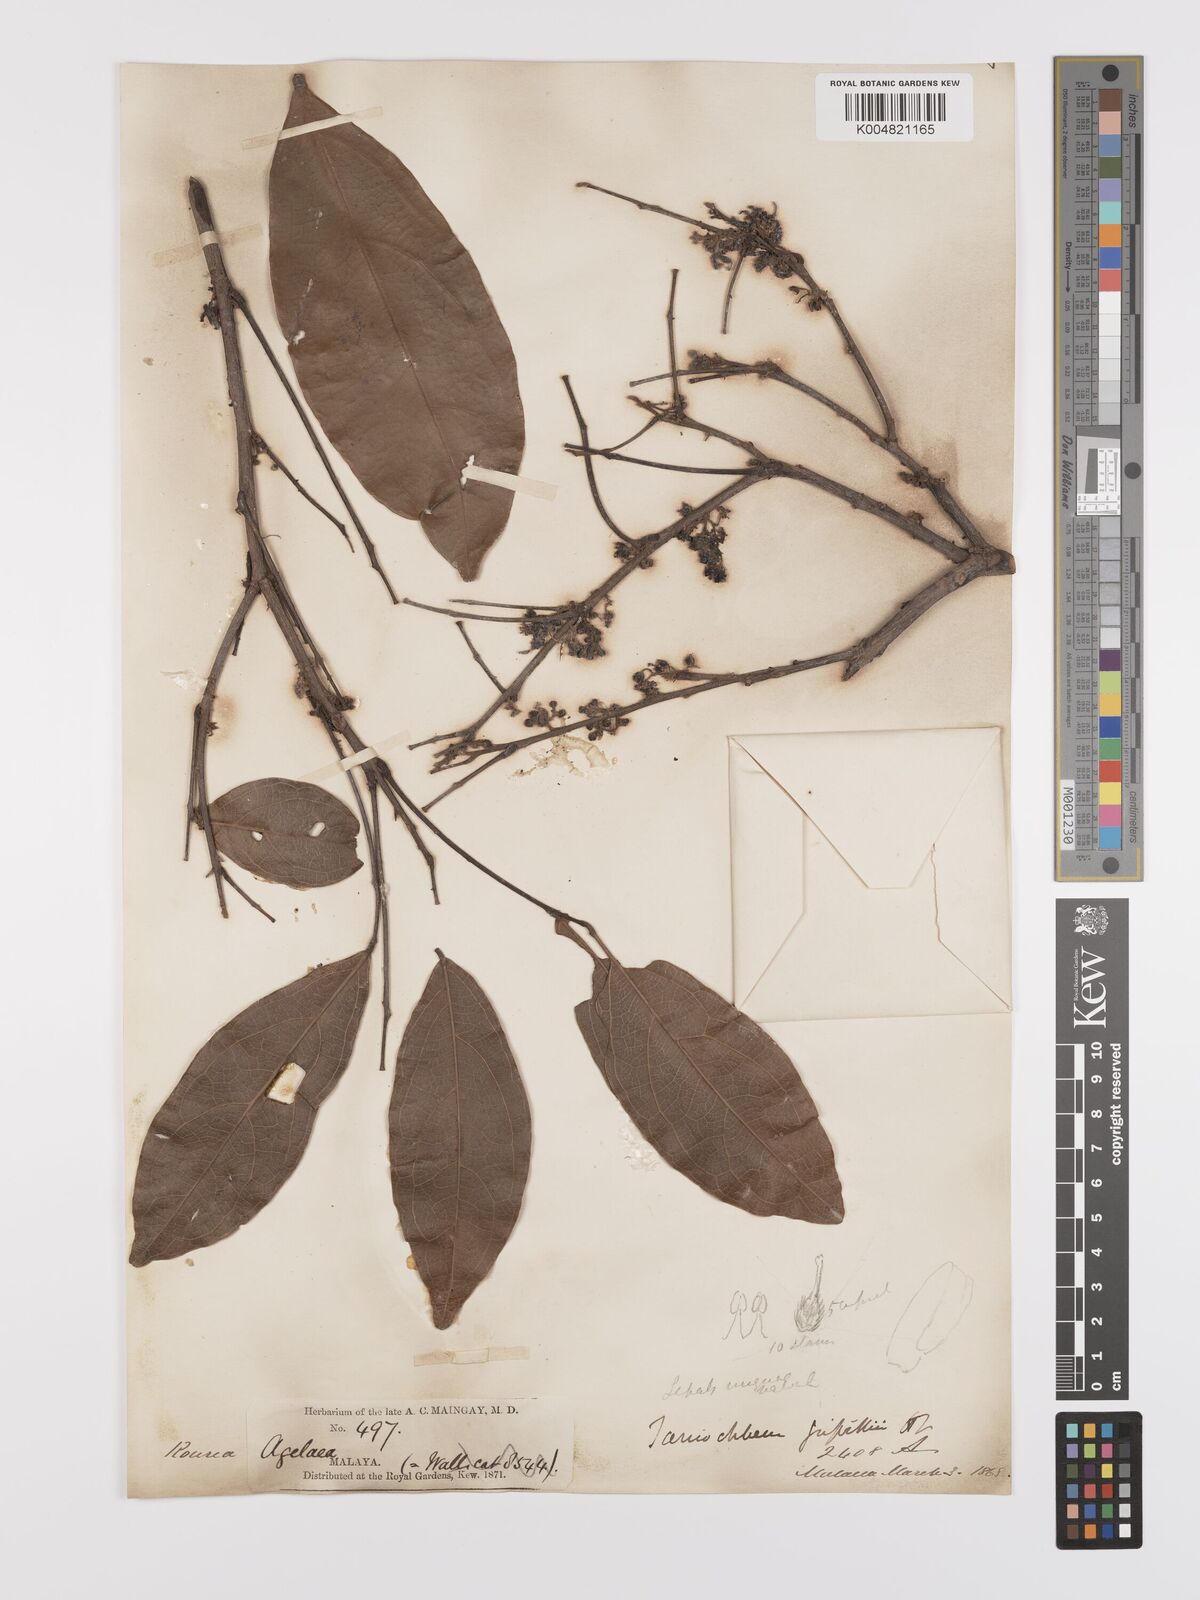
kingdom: Plantae
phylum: Tracheophyta
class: Magnoliopsida
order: Oxalidales
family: Connaraceae
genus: Rourea
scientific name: Rourea acutipetala
